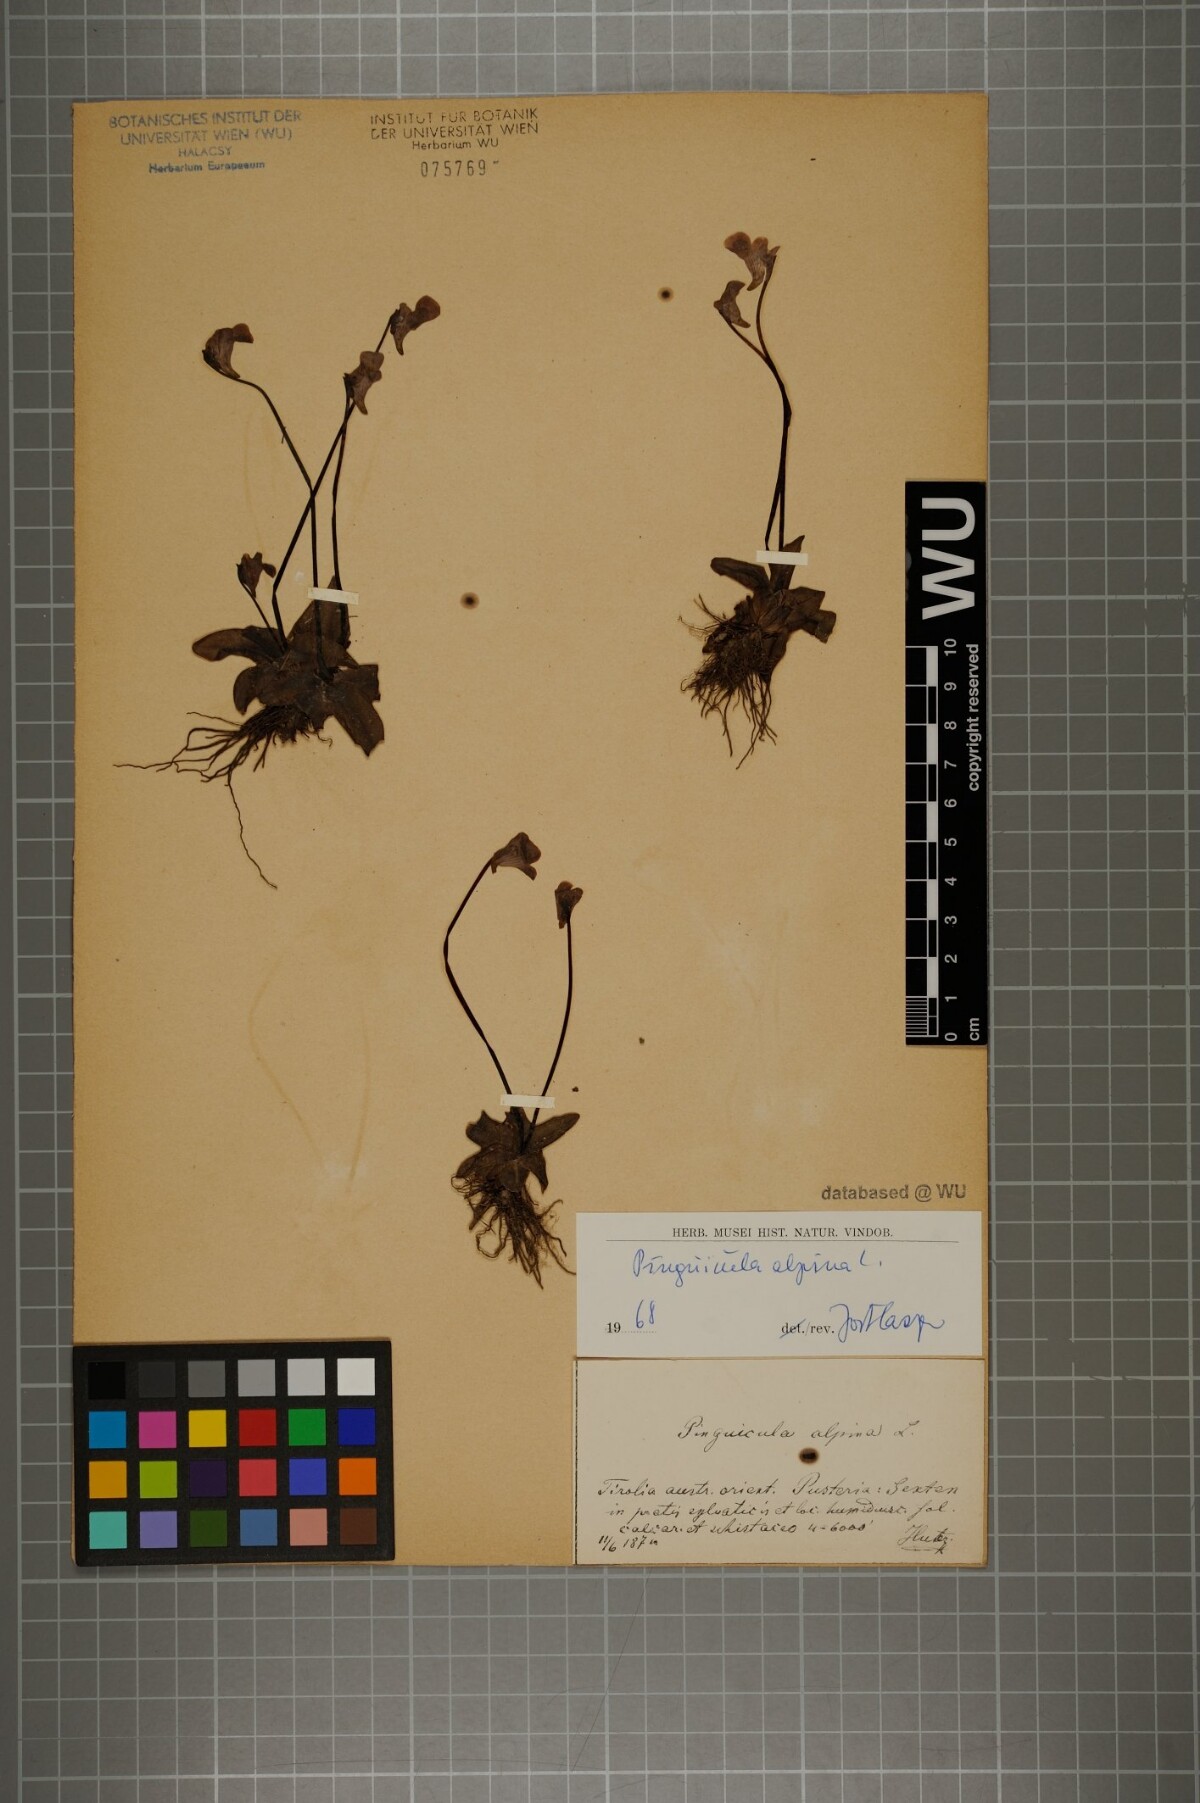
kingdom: Plantae
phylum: Tracheophyta
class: Magnoliopsida
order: Lamiales
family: Lentibulariaceae
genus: Pinguicula
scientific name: Pinguicula alpina
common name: Alpine butterwort
